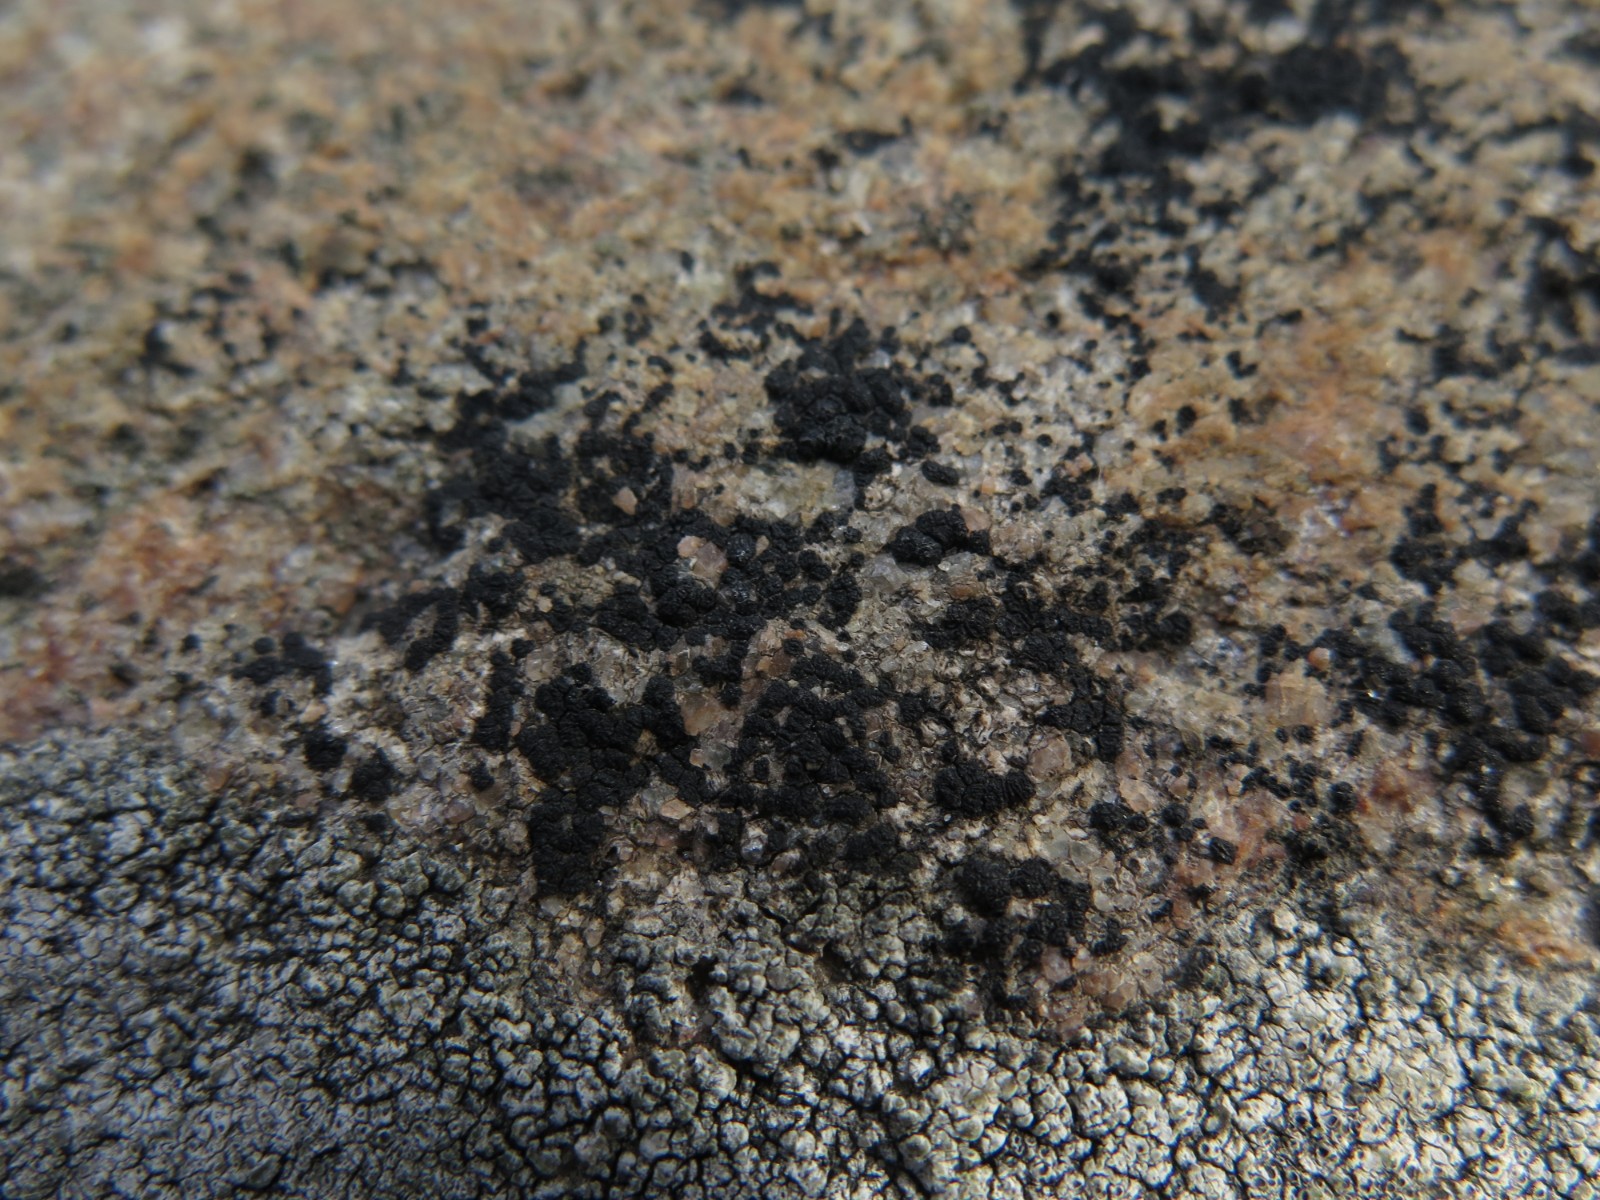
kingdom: Fungi
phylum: Ascomycota
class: Lecanoromycetes
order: Acarosporales
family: Acarosporaceae
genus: Acarospora
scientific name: Acarospora privigna
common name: sort foldekantlav
